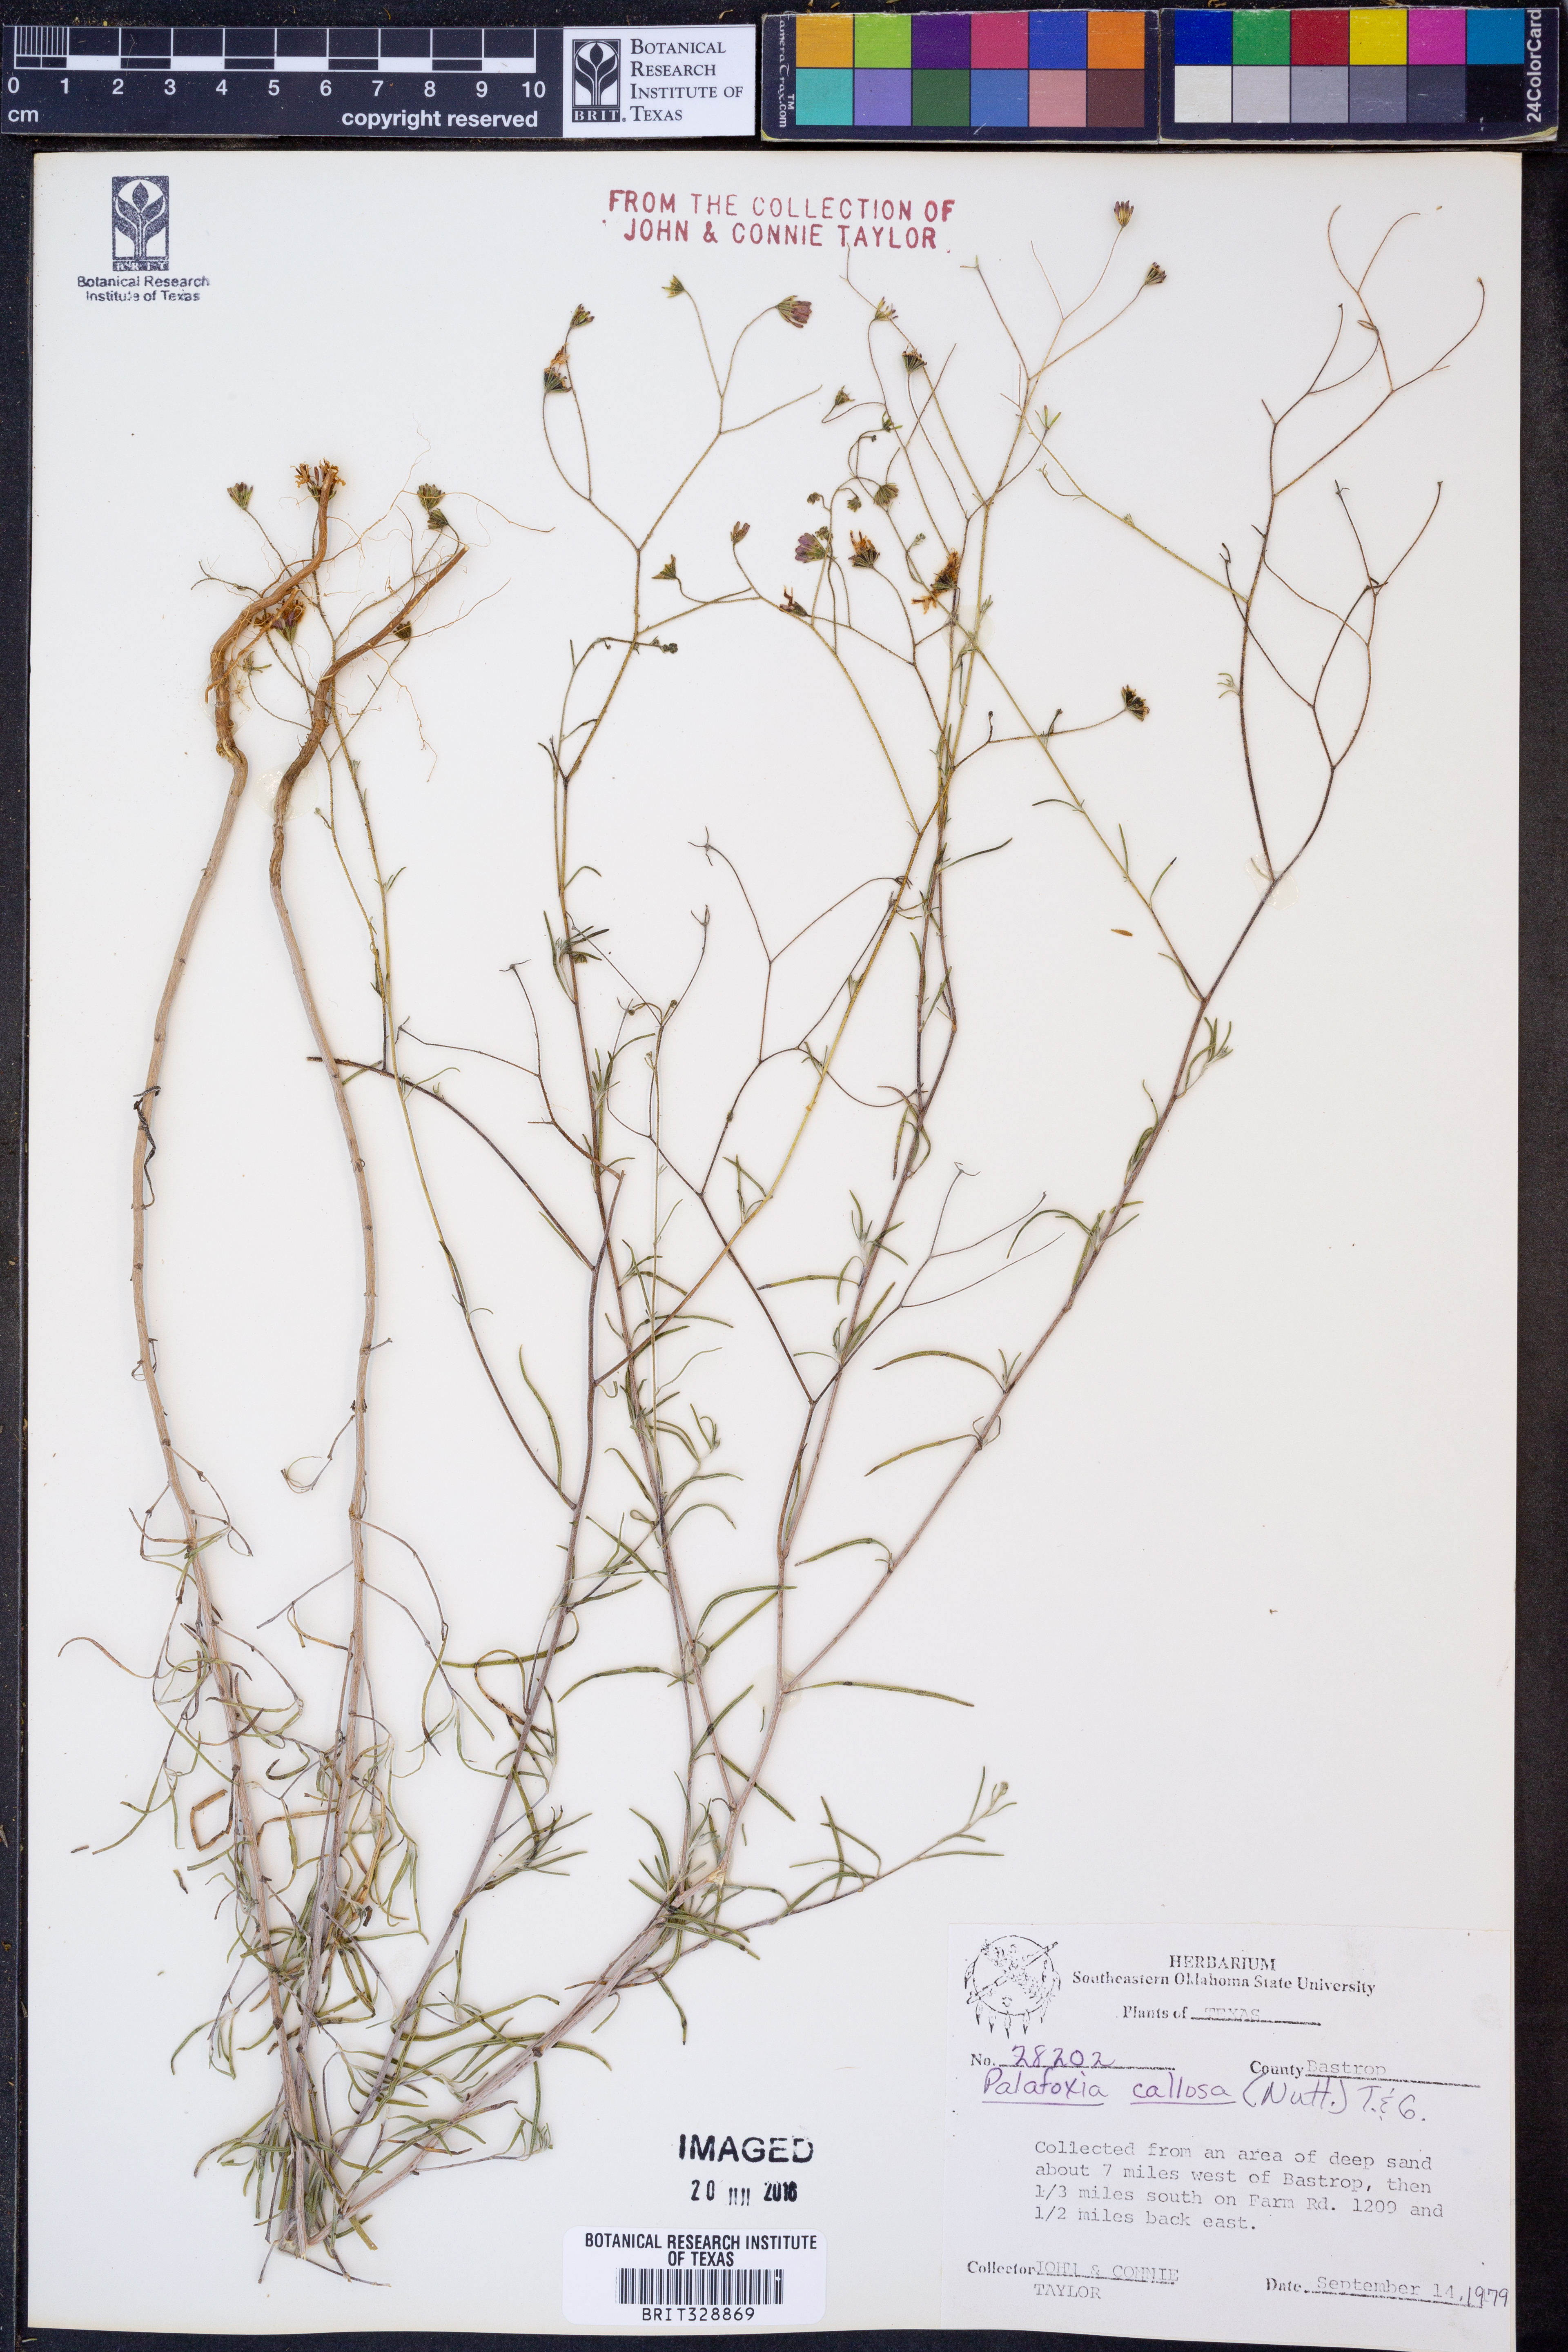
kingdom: Plantae
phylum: Tracheophyta
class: Magnoliopsida
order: Asterales
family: Asteraceae
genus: Palafoxia
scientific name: Palafoxia callosa
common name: Small palafox
